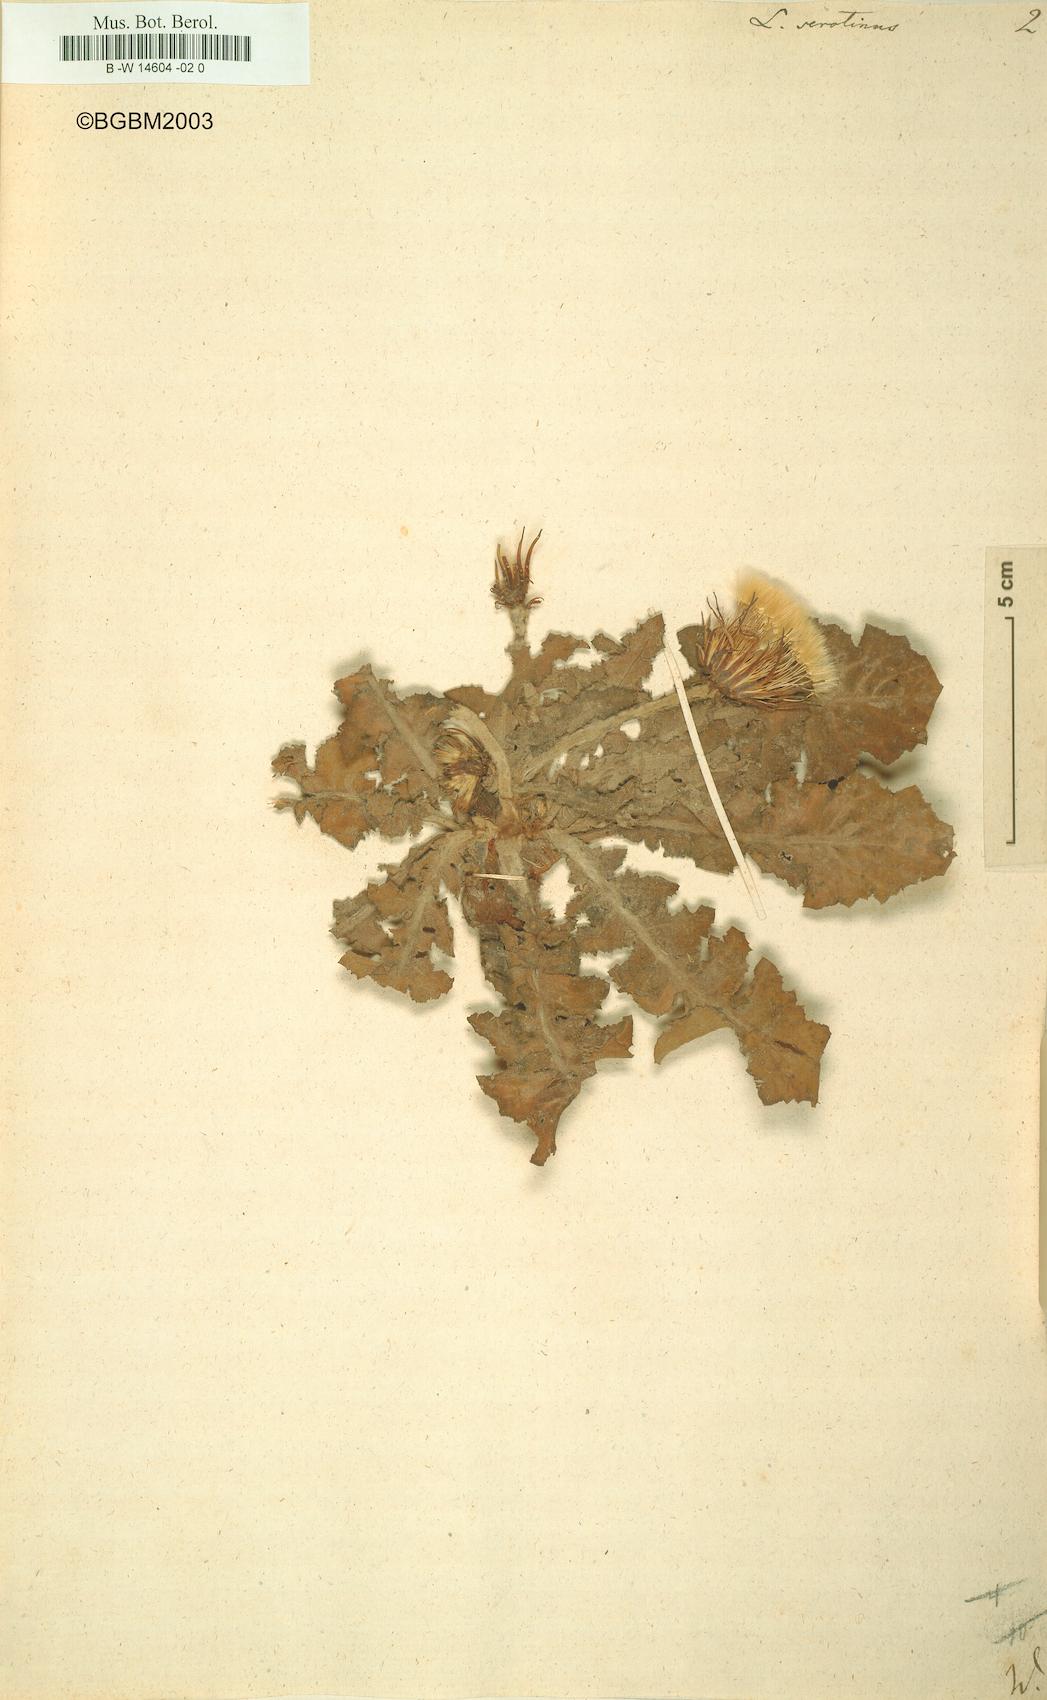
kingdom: Plantae
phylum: Tracheophyta
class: Magnoliopsida
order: Asterales
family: Asteraceae
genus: Leontodon
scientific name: Leontodon serotinus
